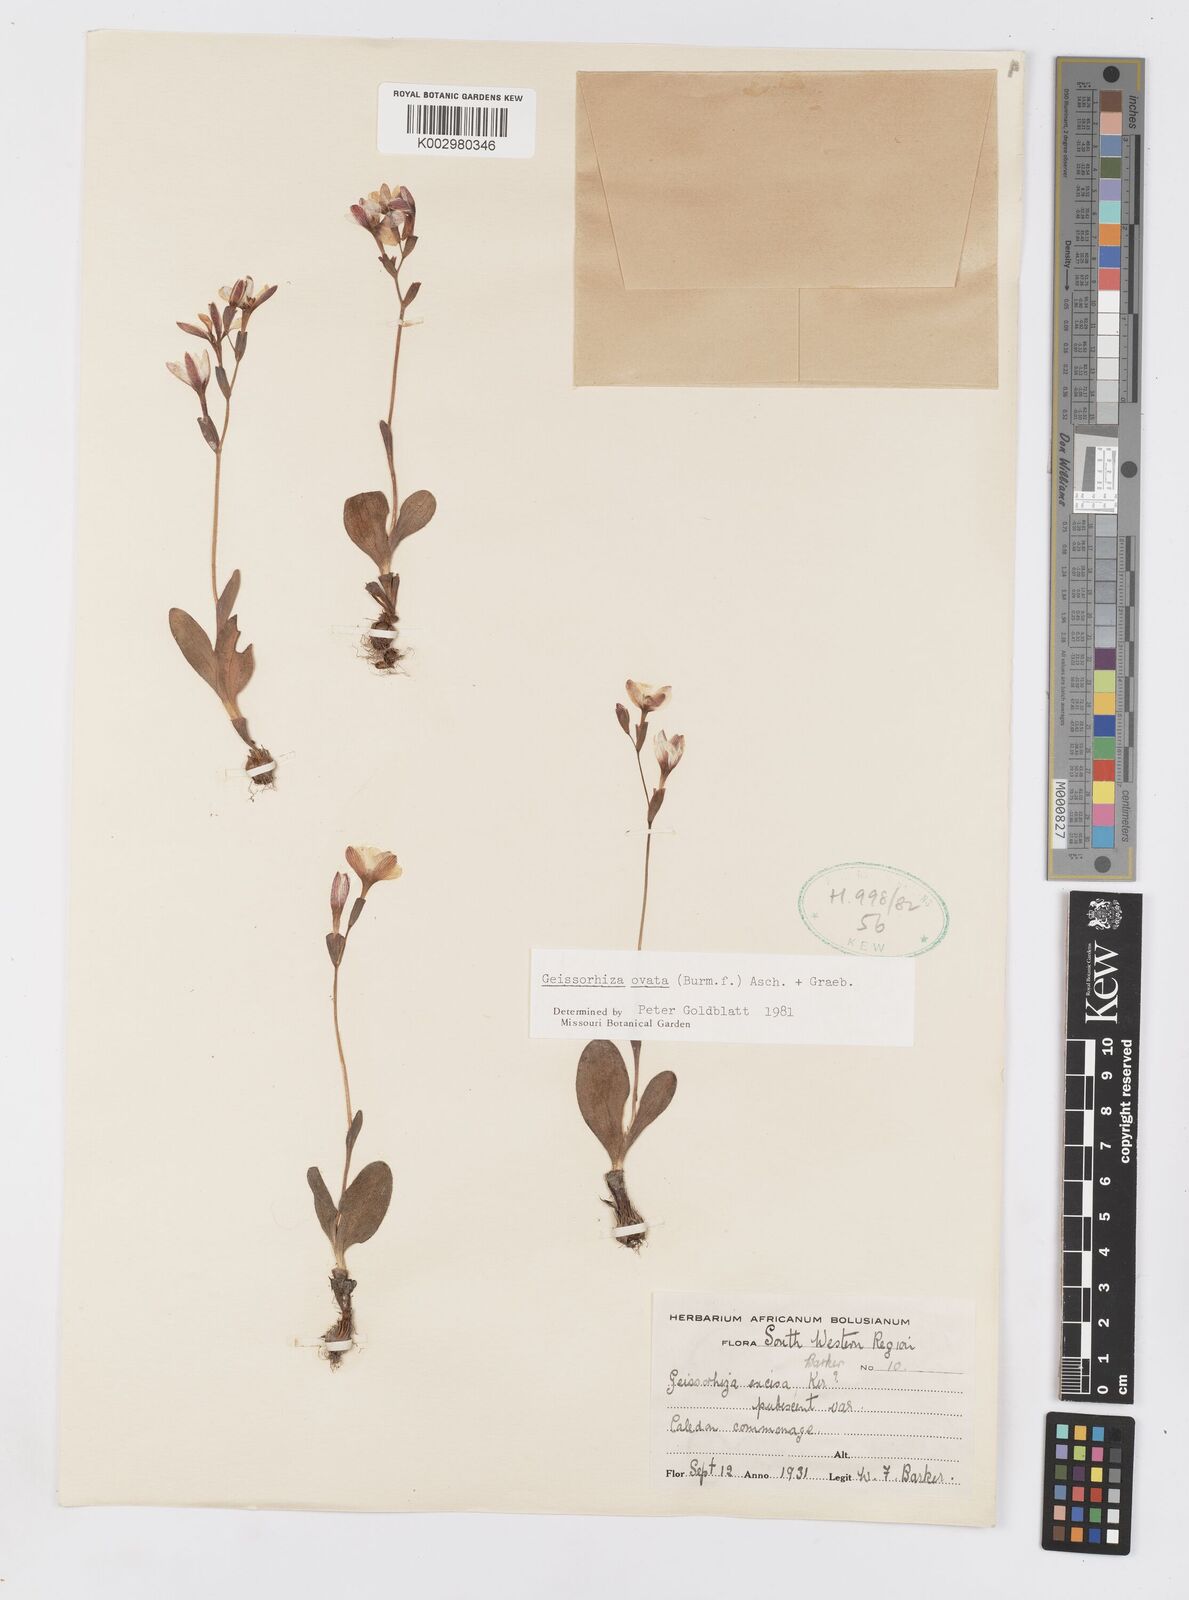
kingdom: Plantae
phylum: Tracheophyta
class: Liliopsida
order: Asparagales
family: Iridaceae
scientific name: Iridaceae
